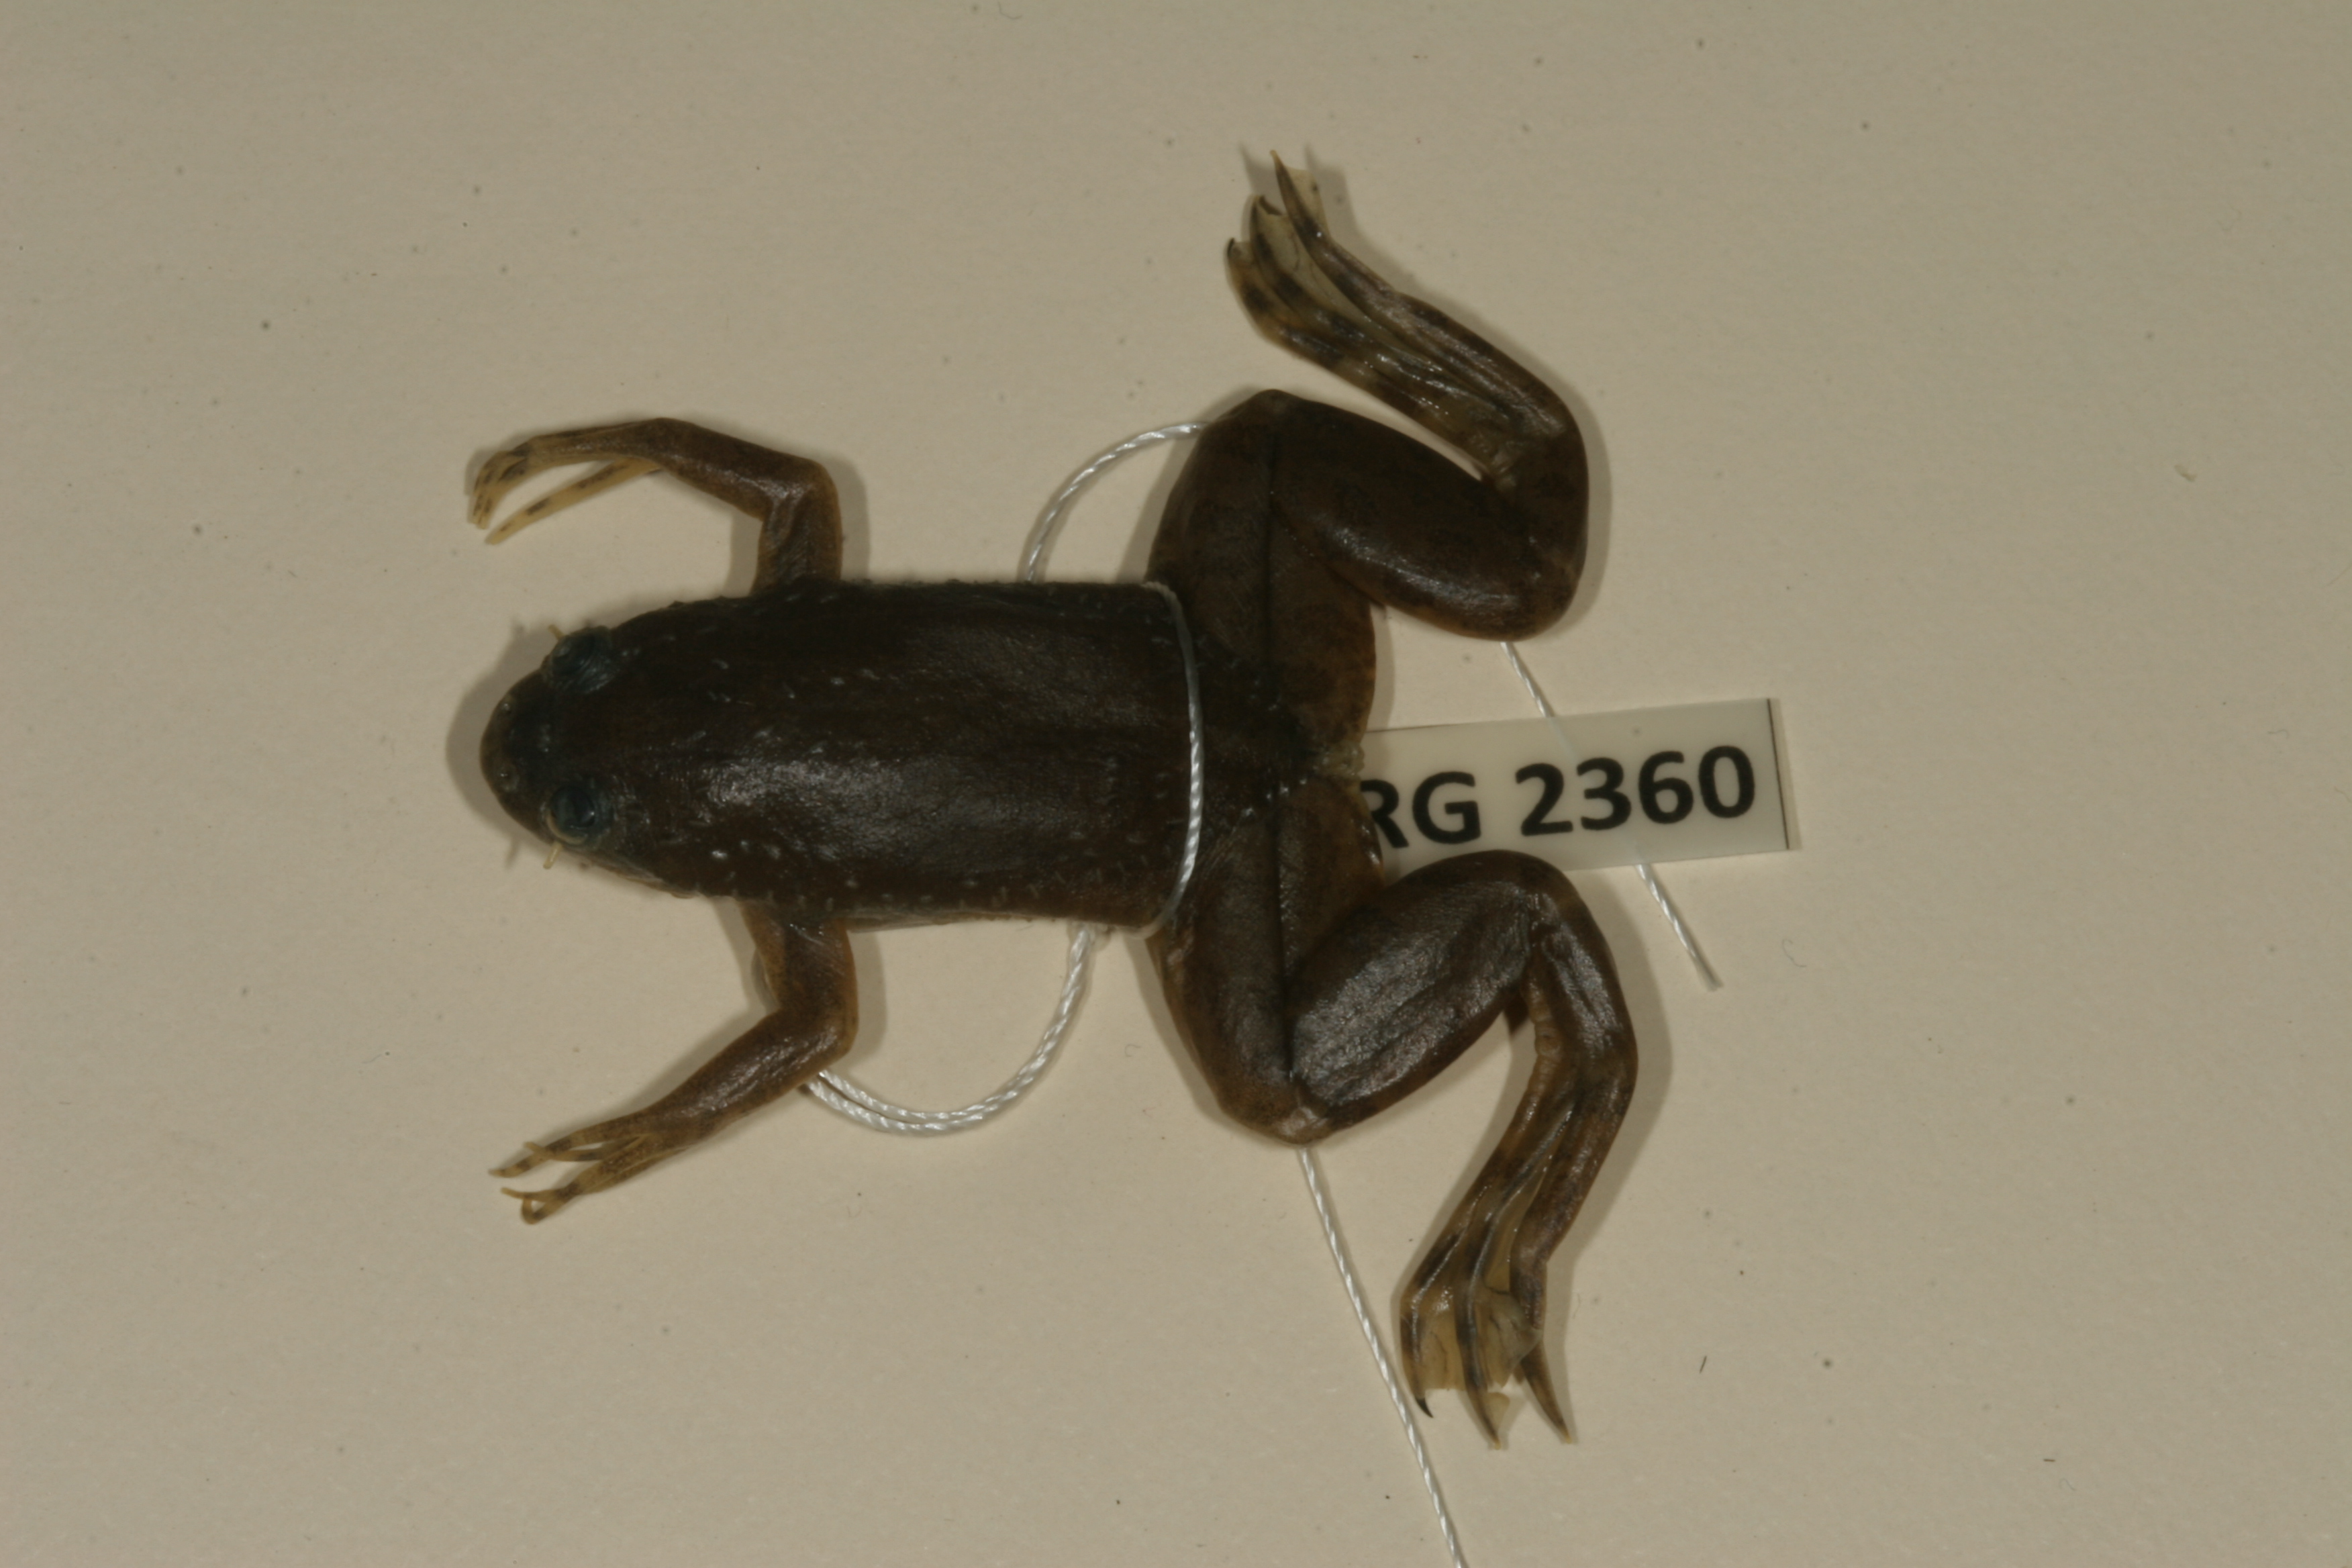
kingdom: Animalia
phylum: Chordata
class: Amphibia
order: Anura
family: Pipidae
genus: Xenopus
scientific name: Xenopus muelleri
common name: Muller's clawed frog
